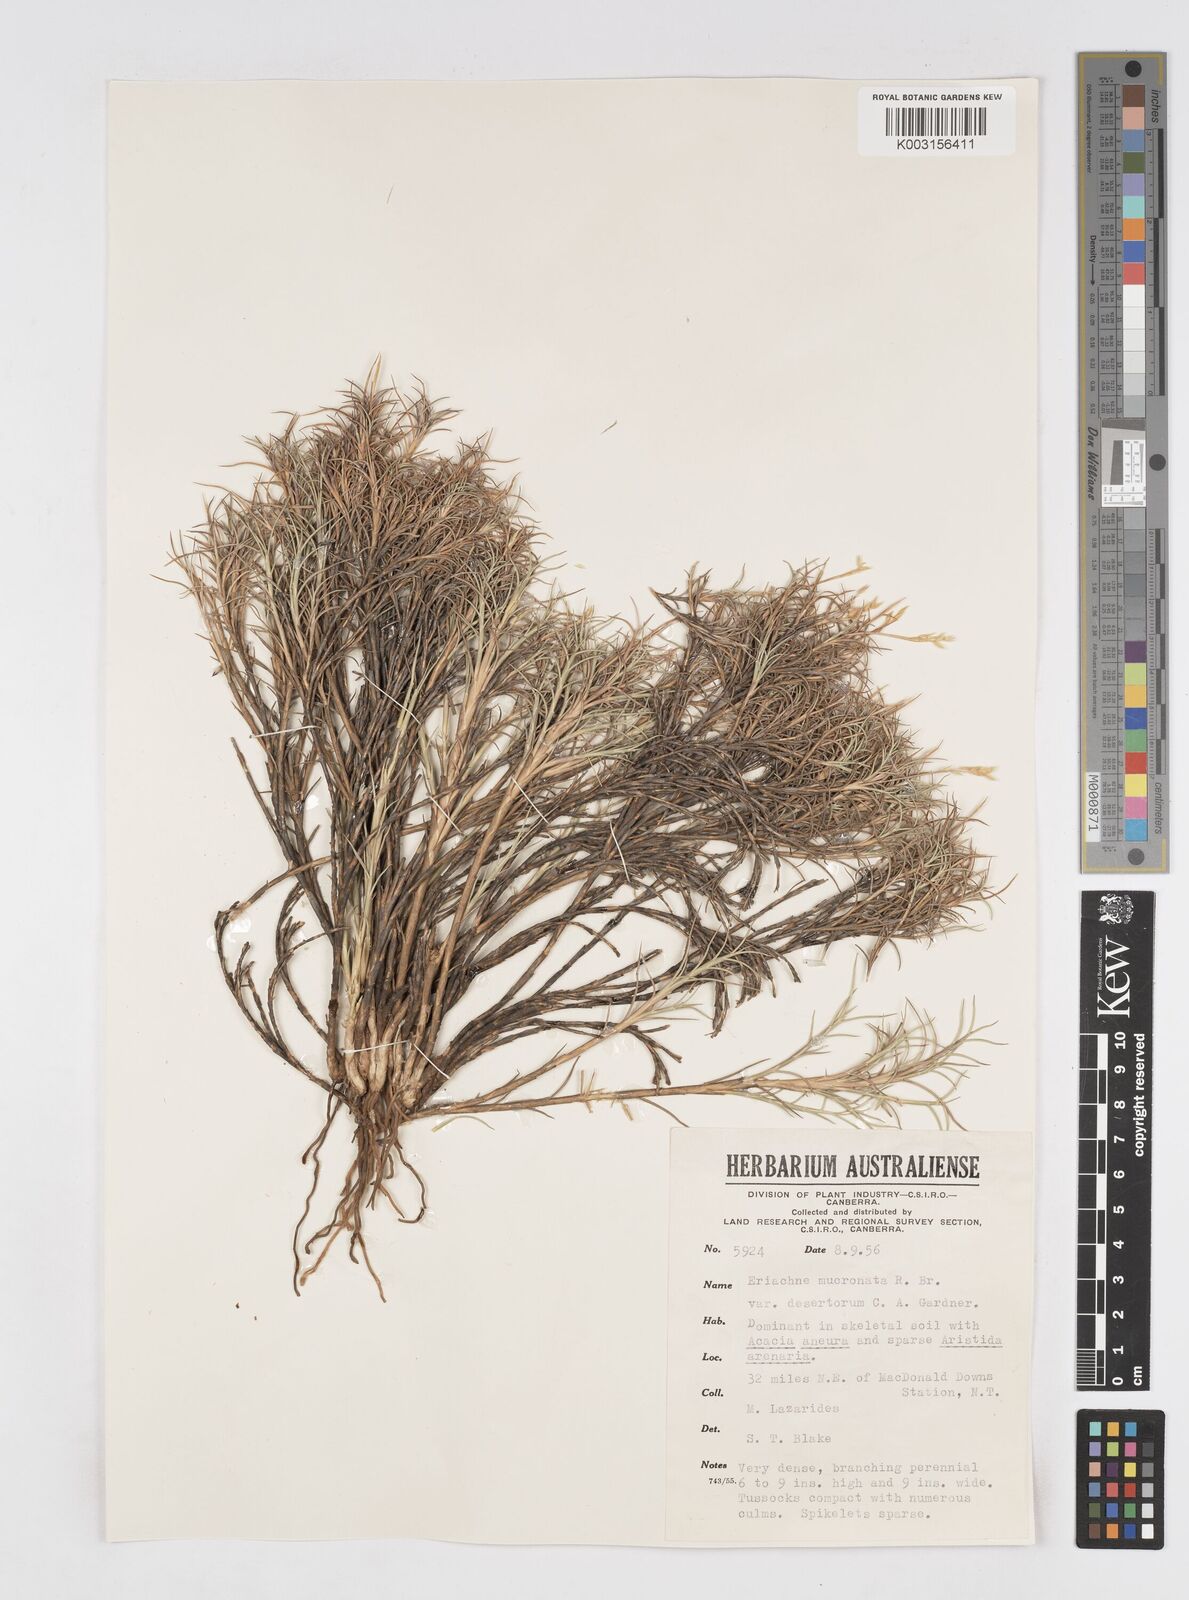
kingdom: Plantae
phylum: Tracheophyta
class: Liliopsida
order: Poales
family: Poaceae
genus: Eriachne
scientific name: Eriachne mucronata
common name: Mountain wanderrie grass
